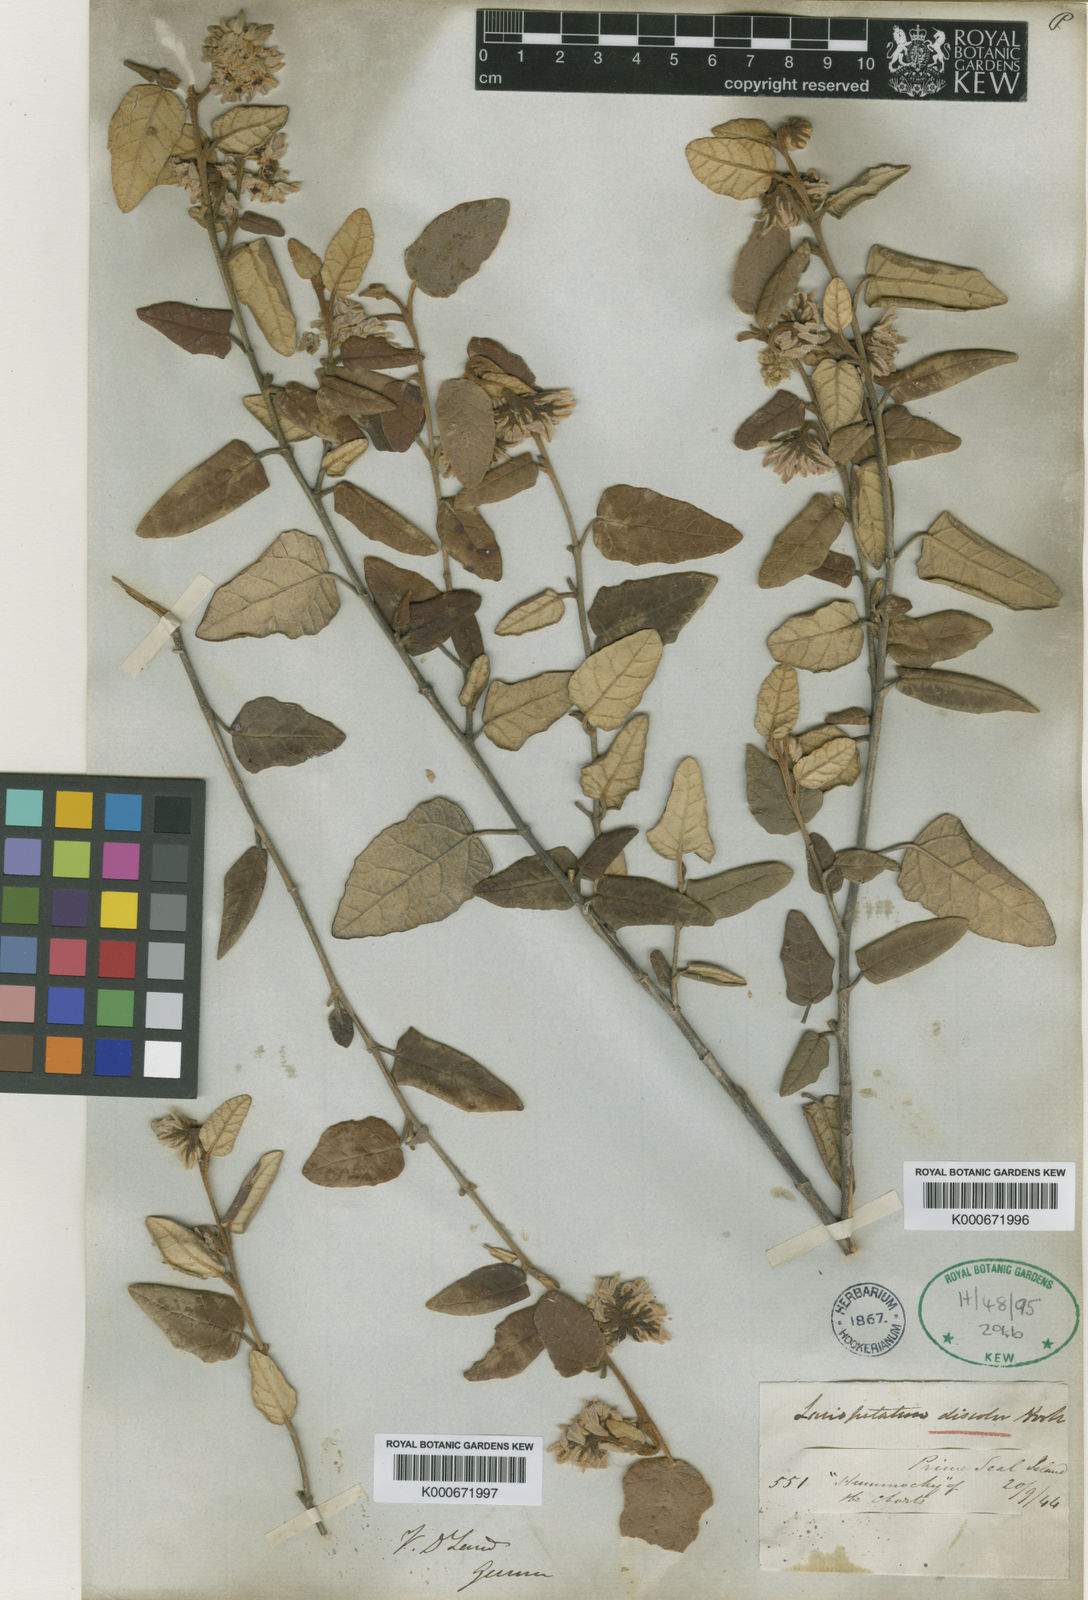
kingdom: Plantae
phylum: Tracheophyta
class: Magnoliopsida
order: Malvales
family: Malvaceae
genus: Lasiopetalum
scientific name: Lasiopetalum discolor
